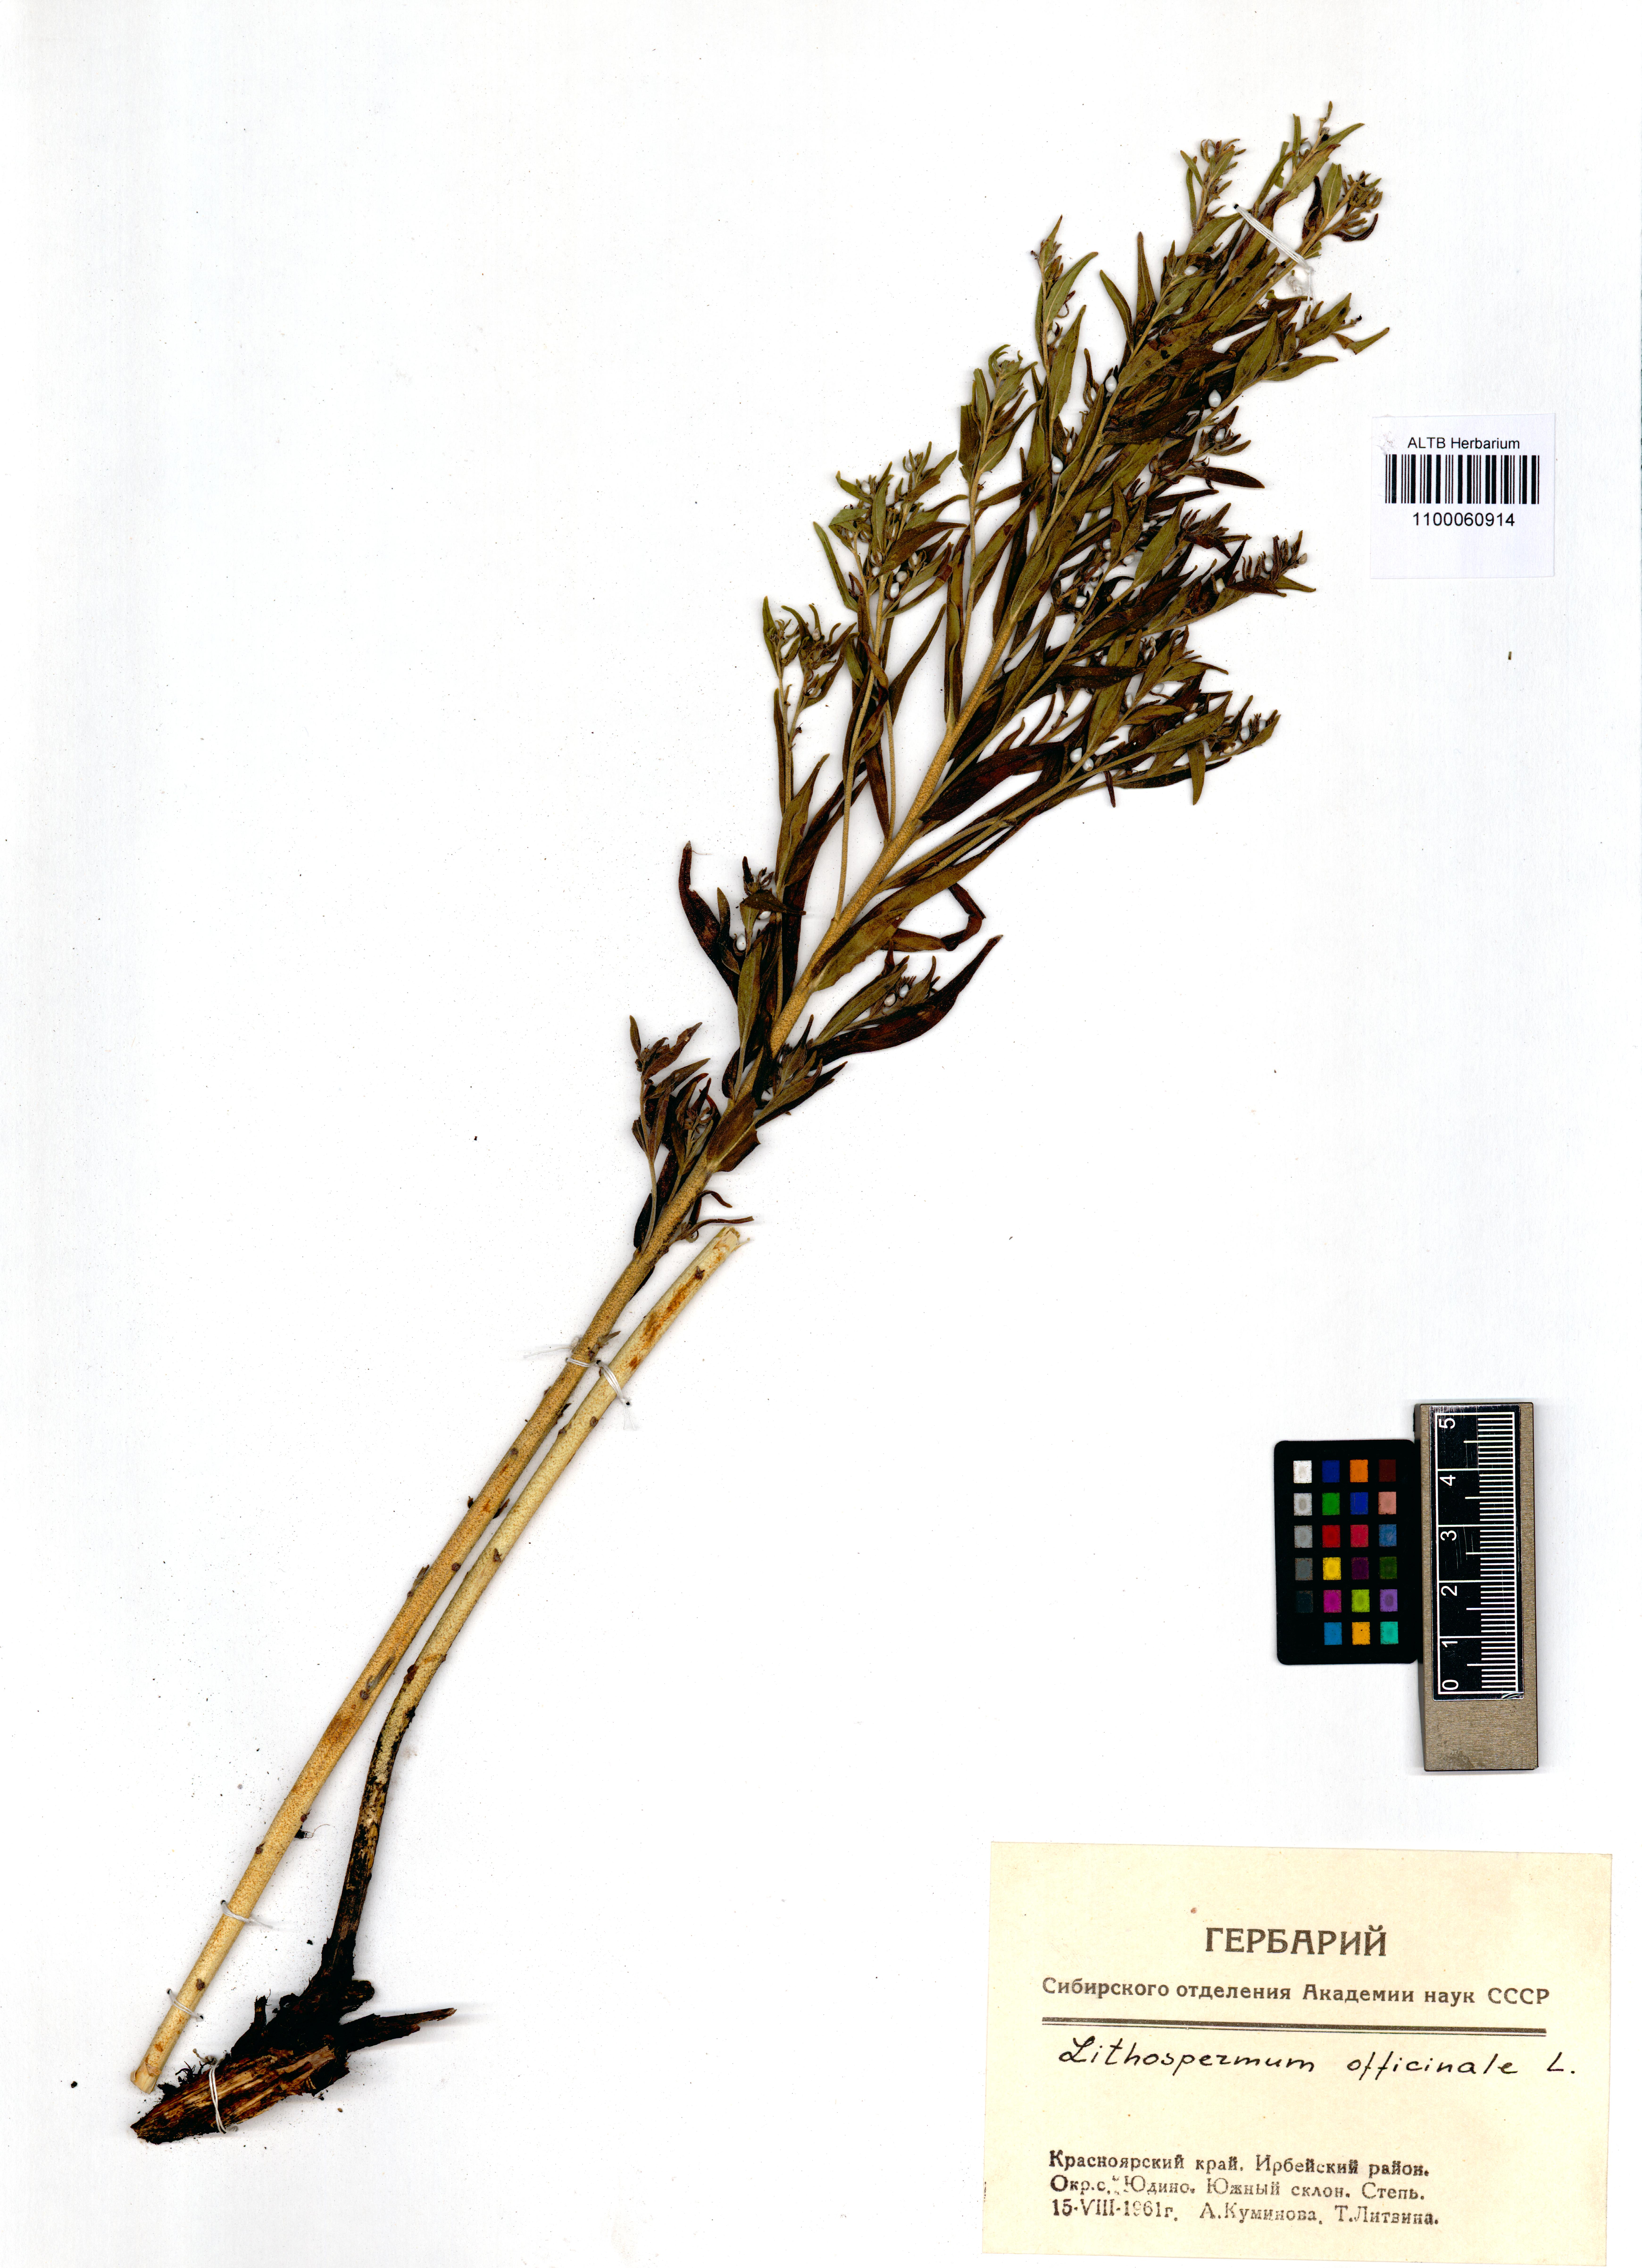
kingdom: Plantae
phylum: Tracheophyta
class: Magnoliopsida
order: Boraginales
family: Boraginaceae
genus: Lithospermum
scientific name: Lithospermum officinale
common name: Common gromwell
